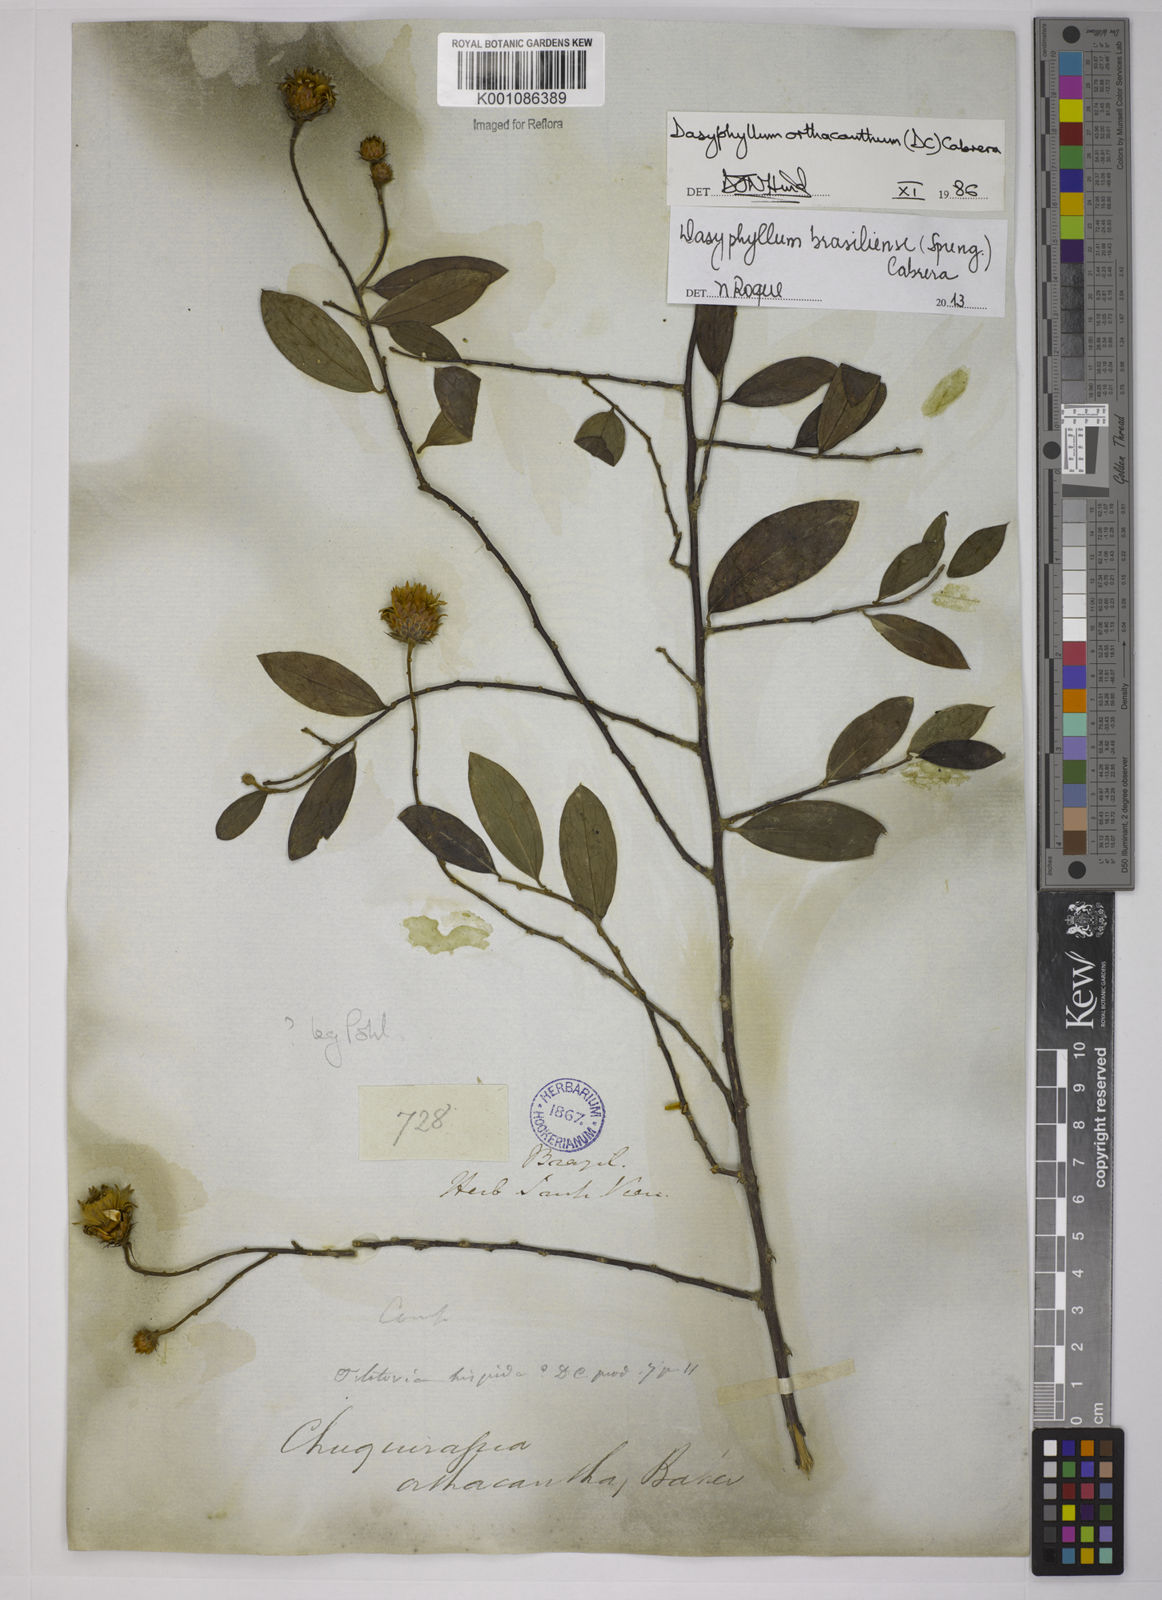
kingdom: Plantae
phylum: Tracheophyta
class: Magnoliopsida
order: Asterales
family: Asteraceae
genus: Dasyphyllum
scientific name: Dasyphyllum brasiliense
